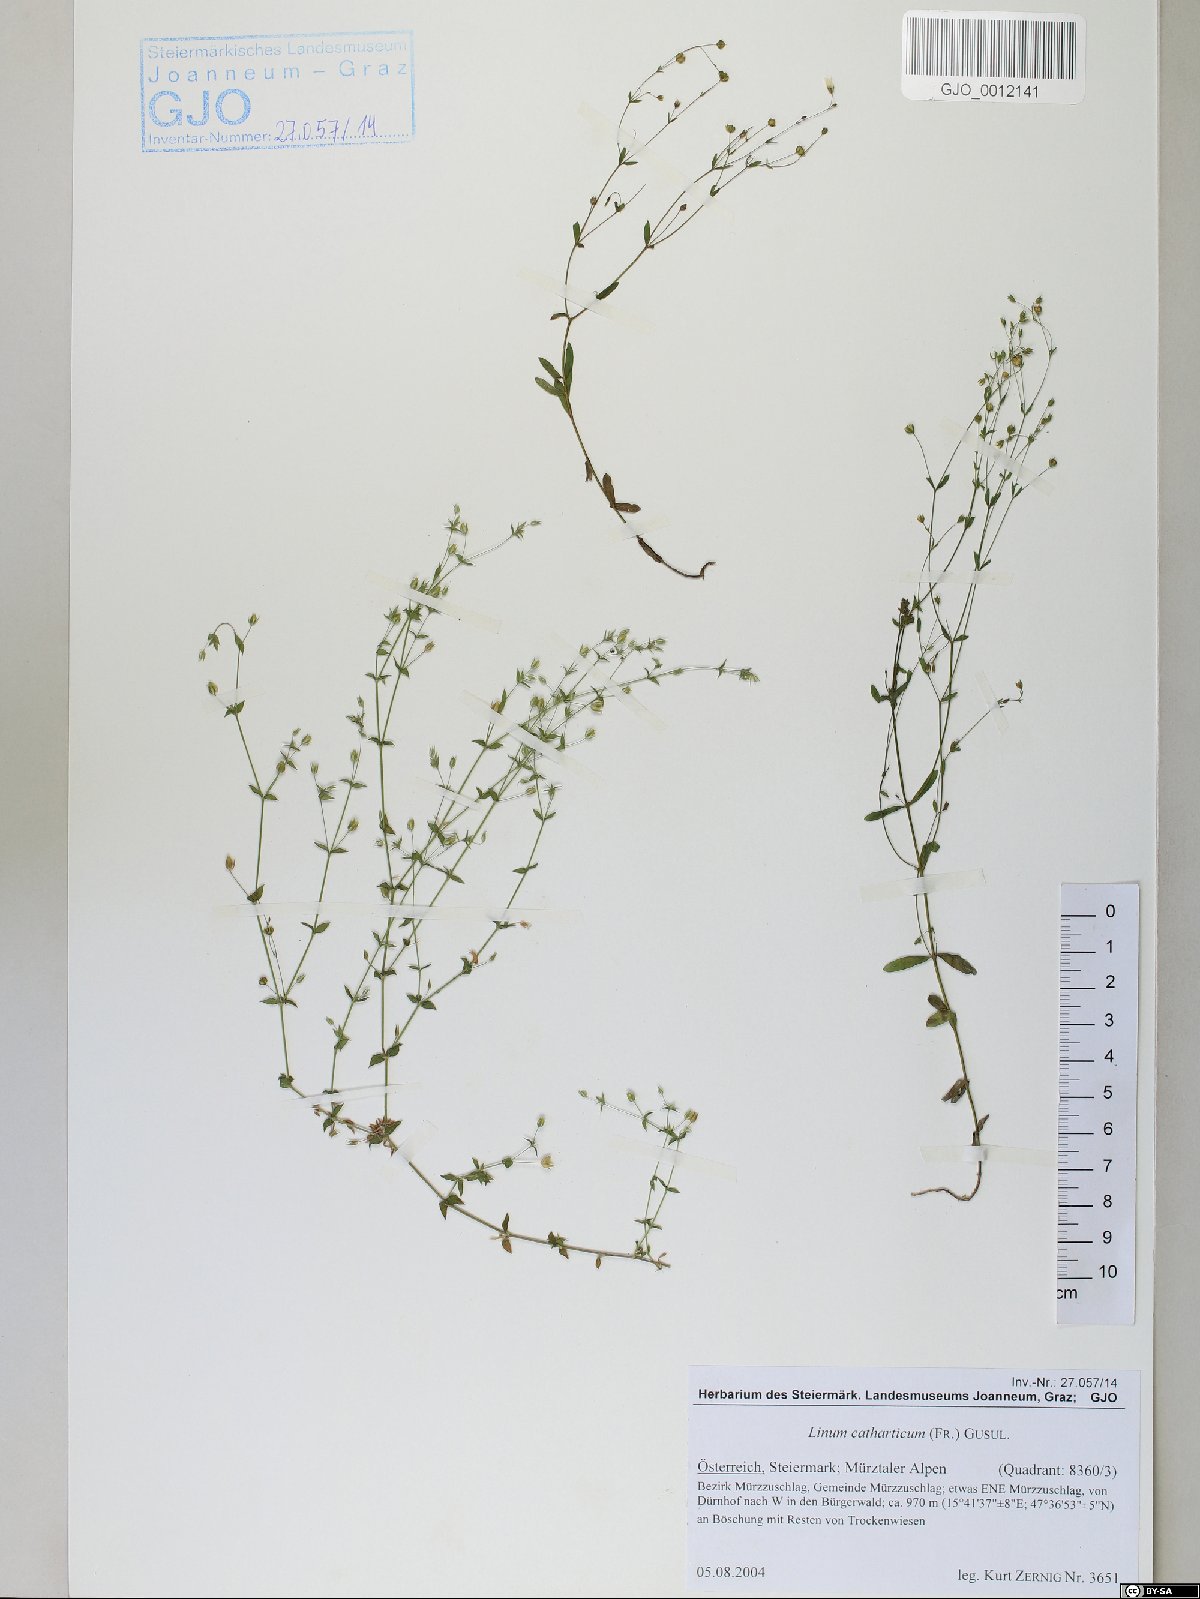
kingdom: Plantae
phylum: Tracheophyta
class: Magnoliopsida
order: Malpighiales
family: Linaceae
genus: Linum
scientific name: Linum catharticum
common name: Fairy flax
